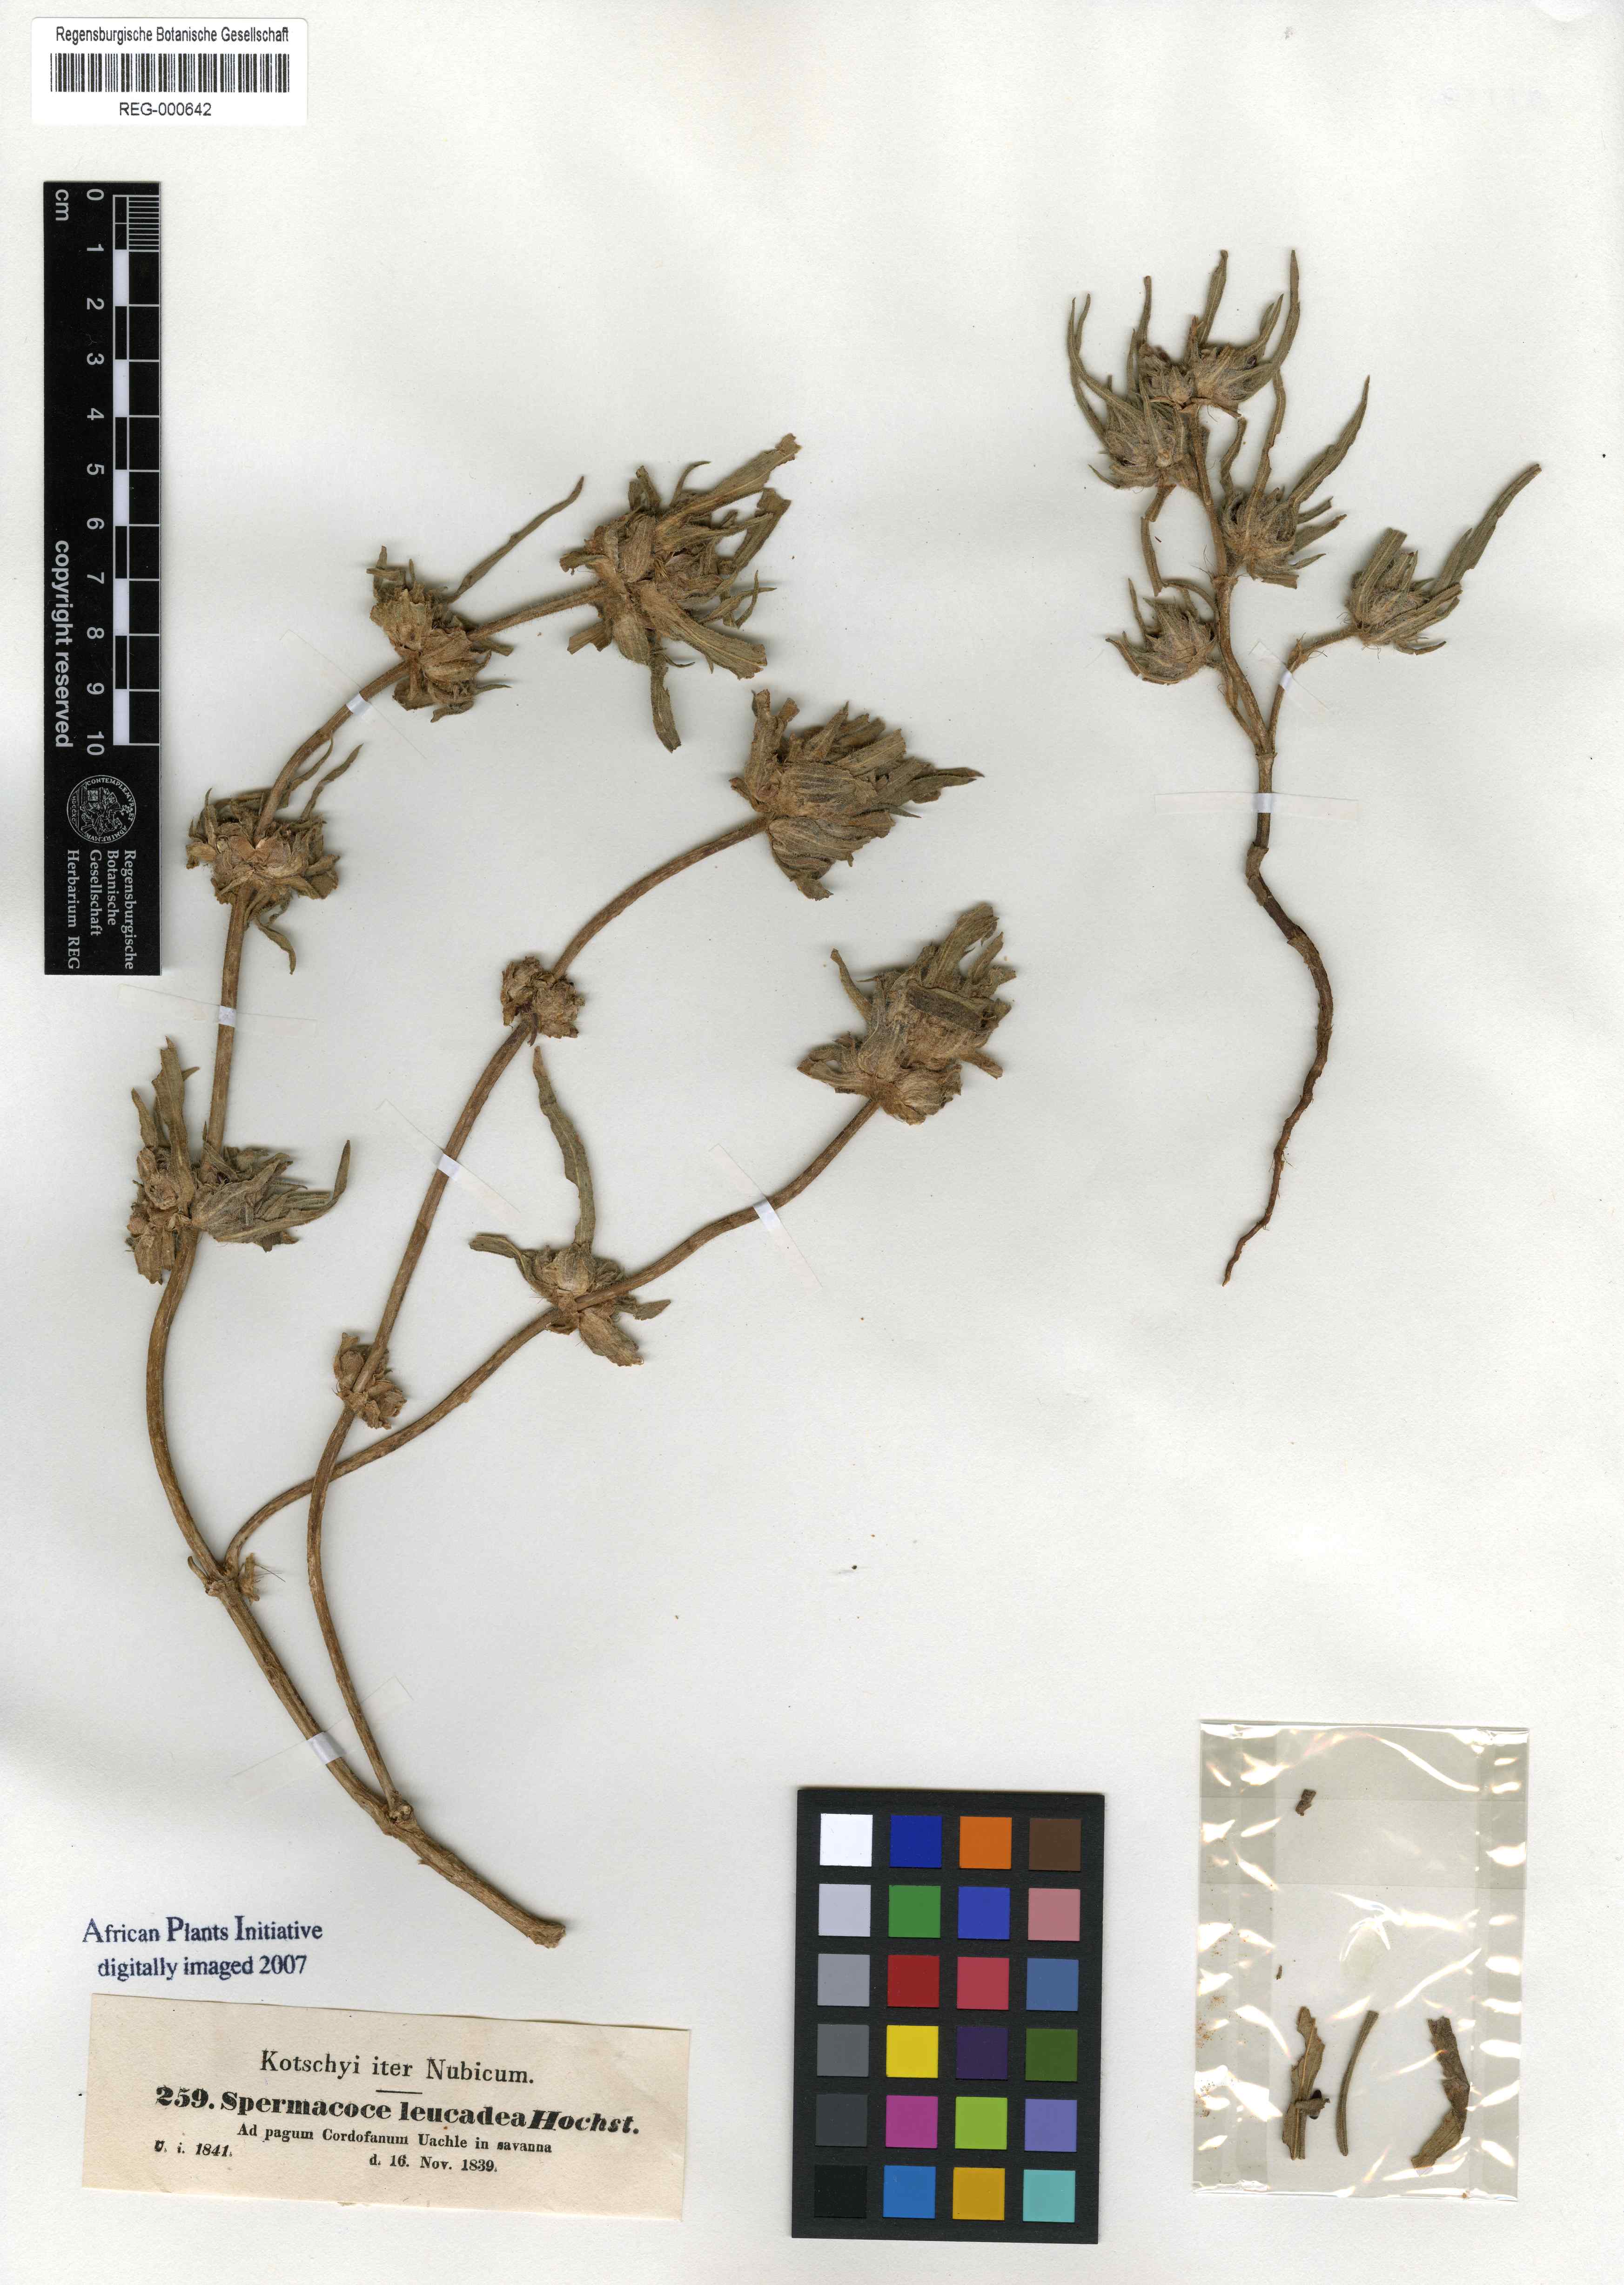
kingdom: Plantae
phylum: Tracheophyta
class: Magnoliopsida
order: Gentianales
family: Rubiaceae
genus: Spermacoce
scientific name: Spermacoce stachydea
